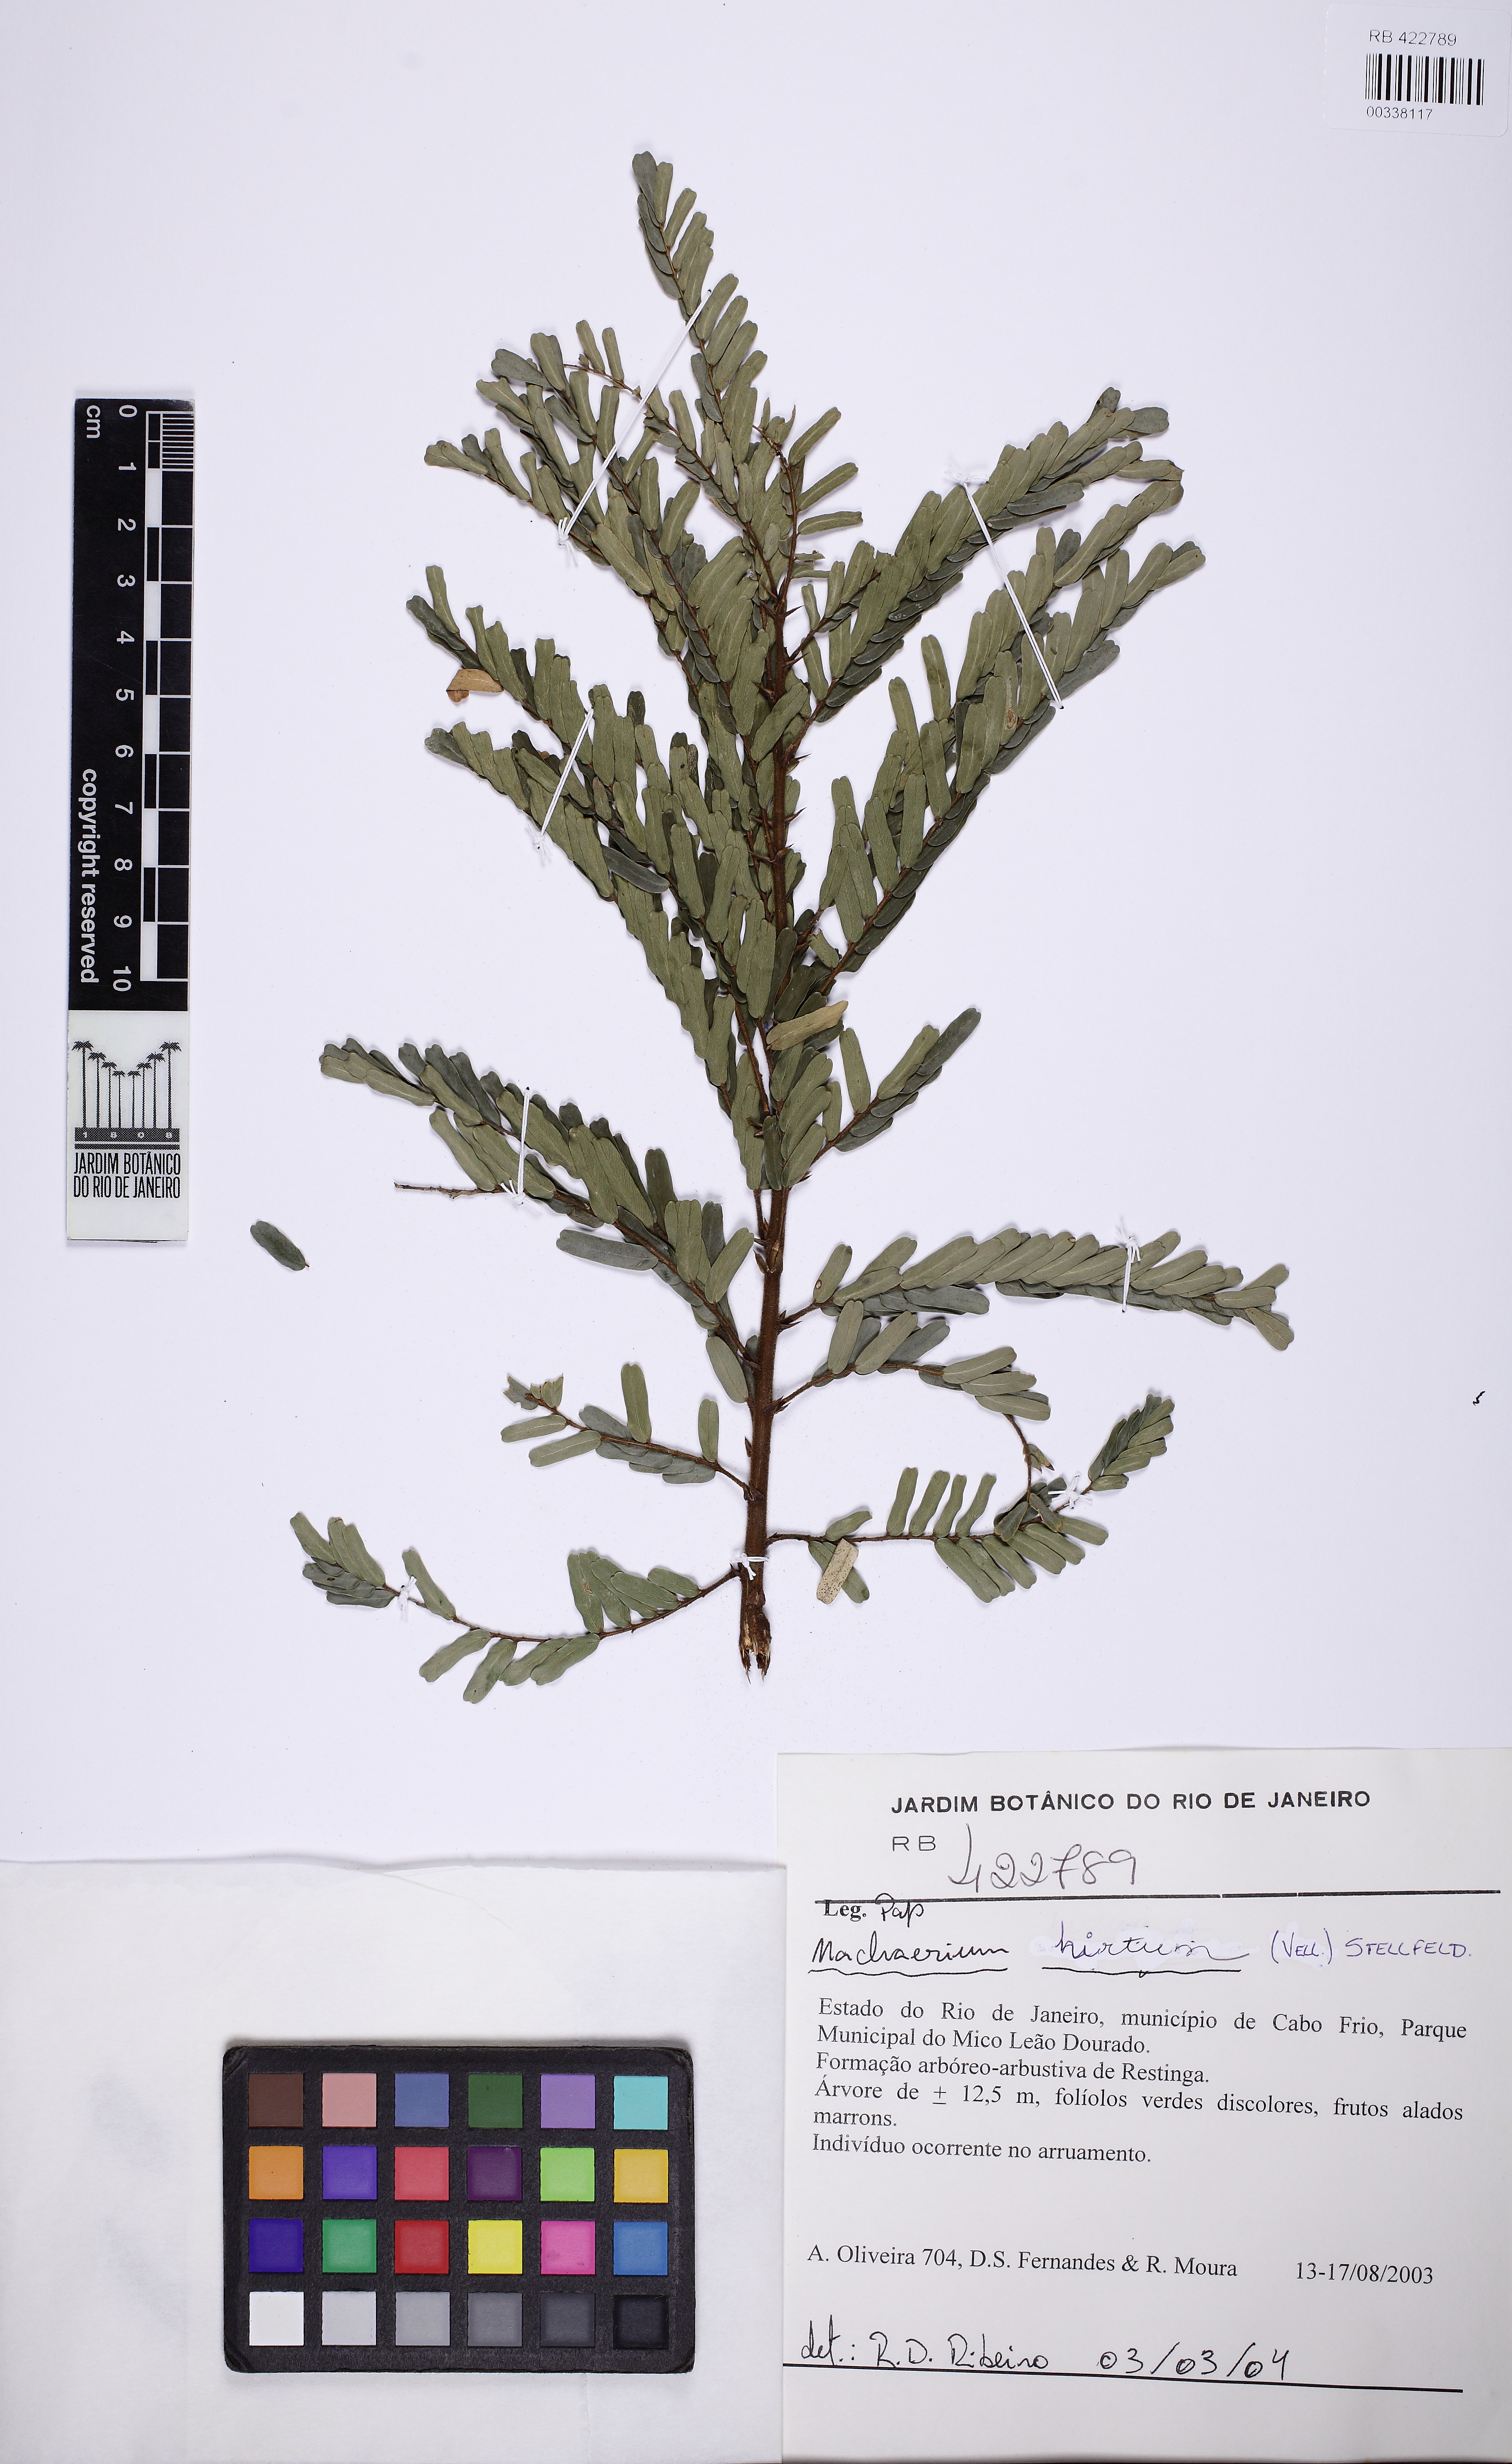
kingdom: Plantae
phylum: Tracheophyta
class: Magnoliopsida
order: Fabales
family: Fabaceae
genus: Machaerium
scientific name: Machaerium hirtum
